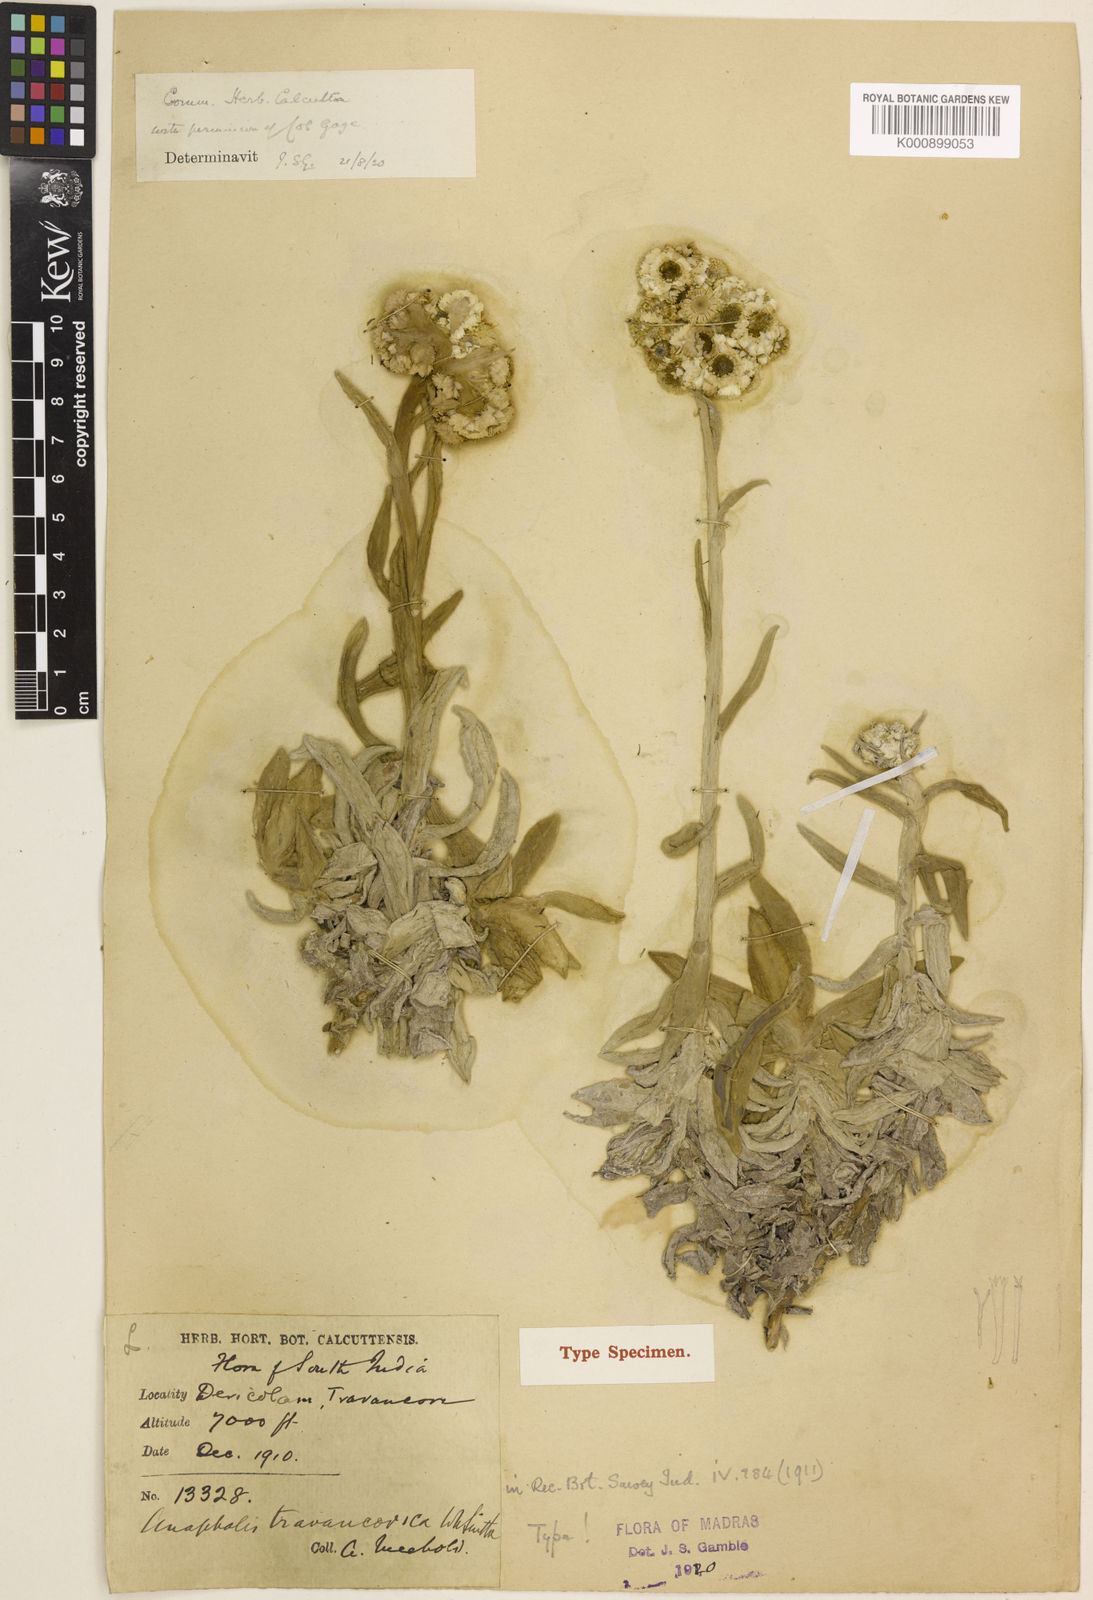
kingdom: Plantae
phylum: Tracheophyta
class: Magnoliopsida
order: Asterales
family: Asteraceae
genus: Anaphalis
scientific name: Anaphalis travancorica
